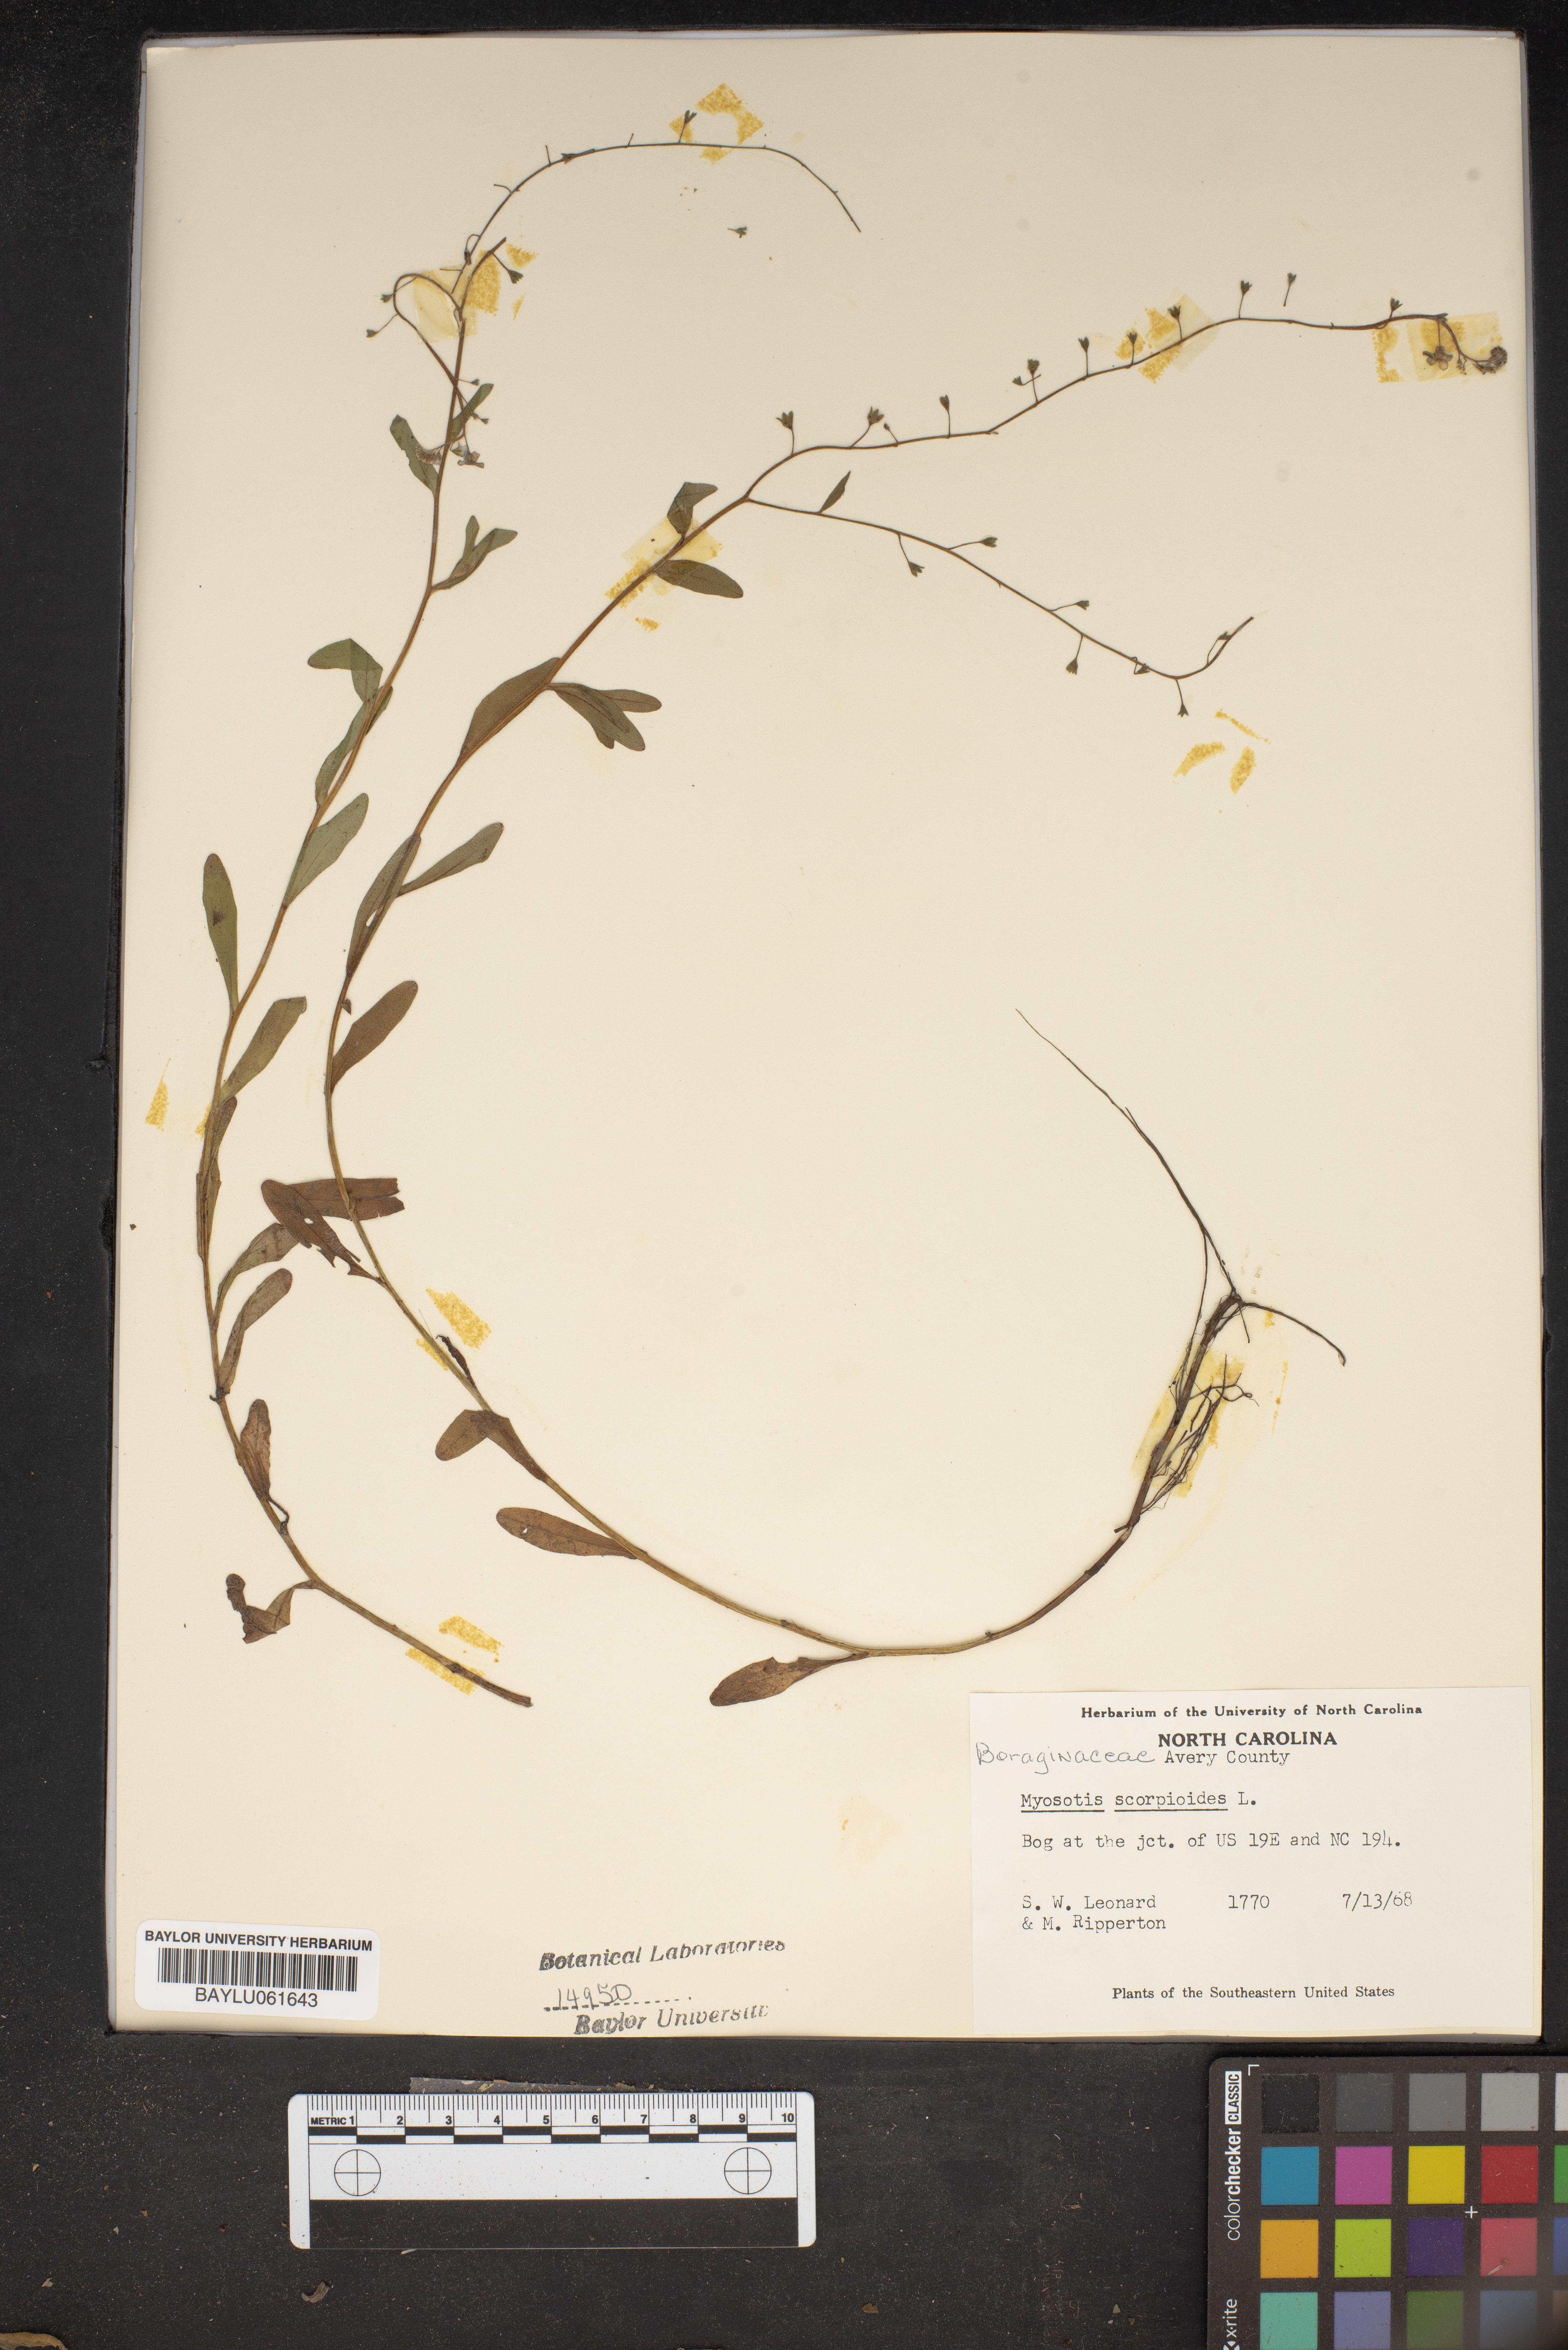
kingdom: Plantae
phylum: Tracheophyta
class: Magnoliopsida
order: Boraginales
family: Boraginaceae
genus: Myosotis
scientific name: Myosotis scorpioides
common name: Water forget-me-not
